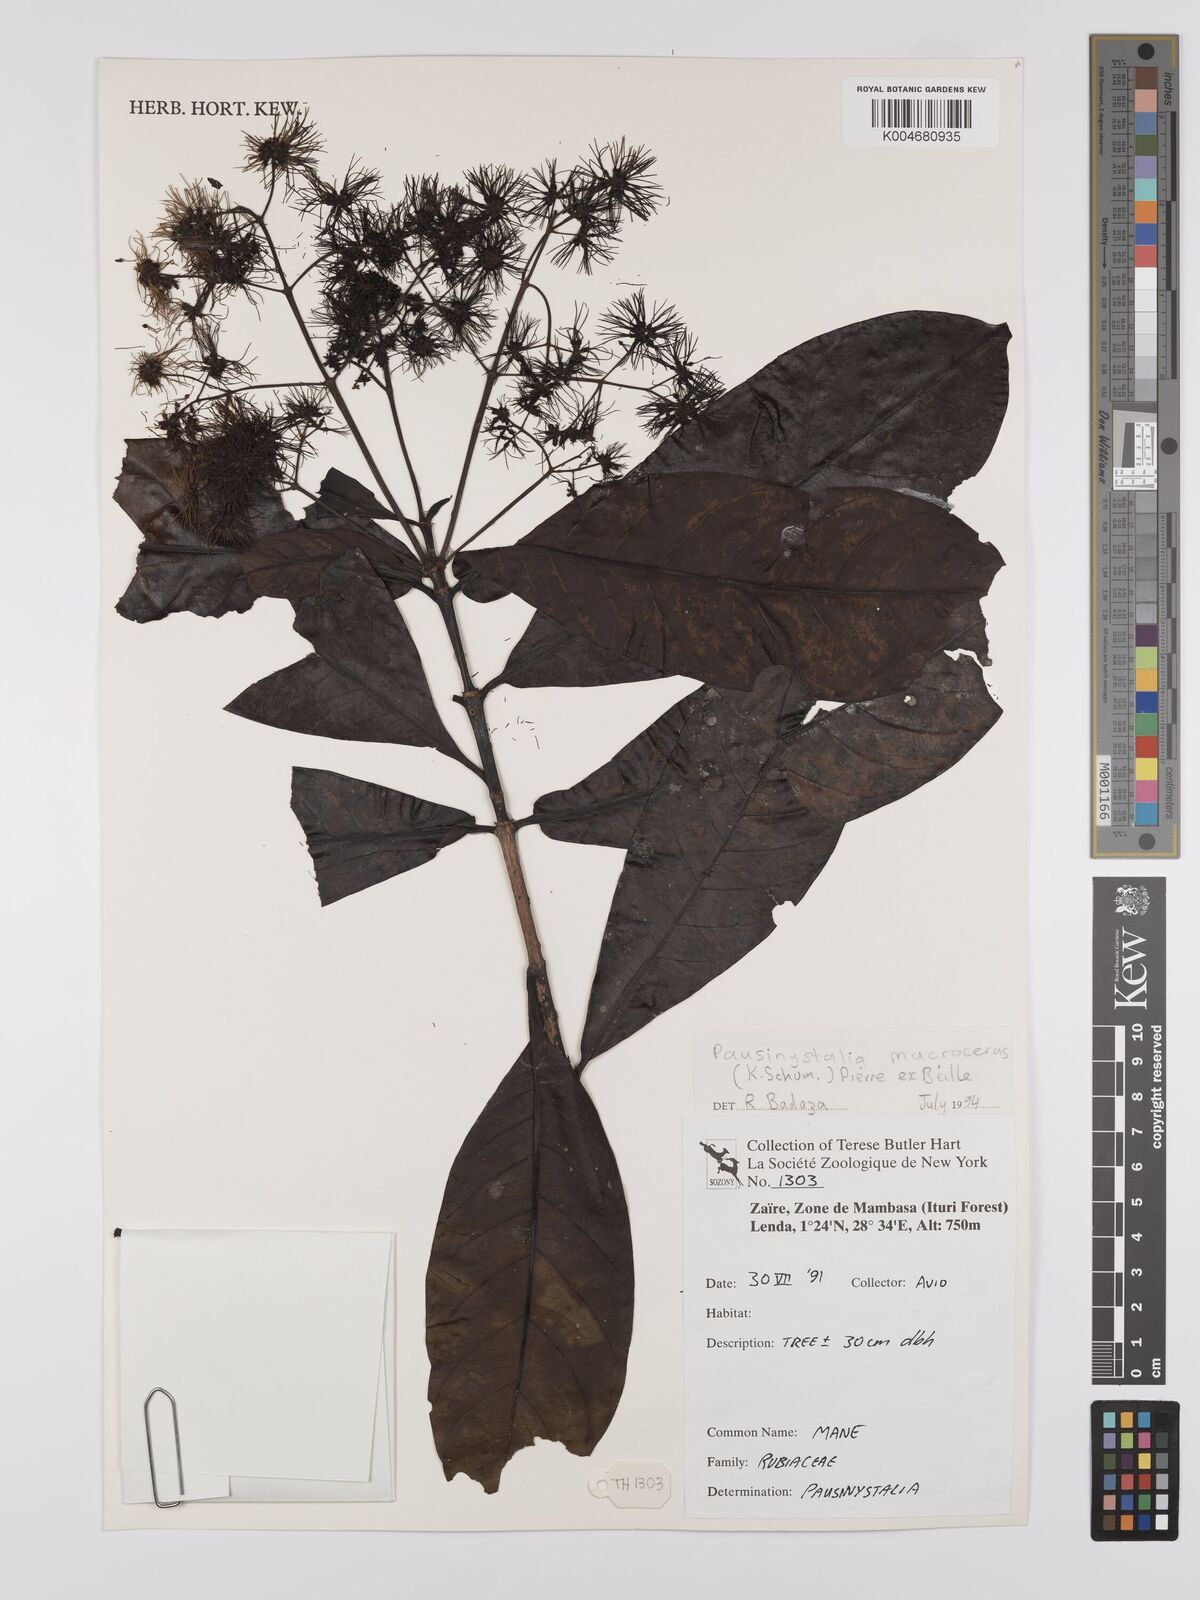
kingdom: Plantae
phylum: Tracheophyta
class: Magnoliopsida
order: Gentianales
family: Rubiaceae
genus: Corynanthe
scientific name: Corynanthe macroceras
